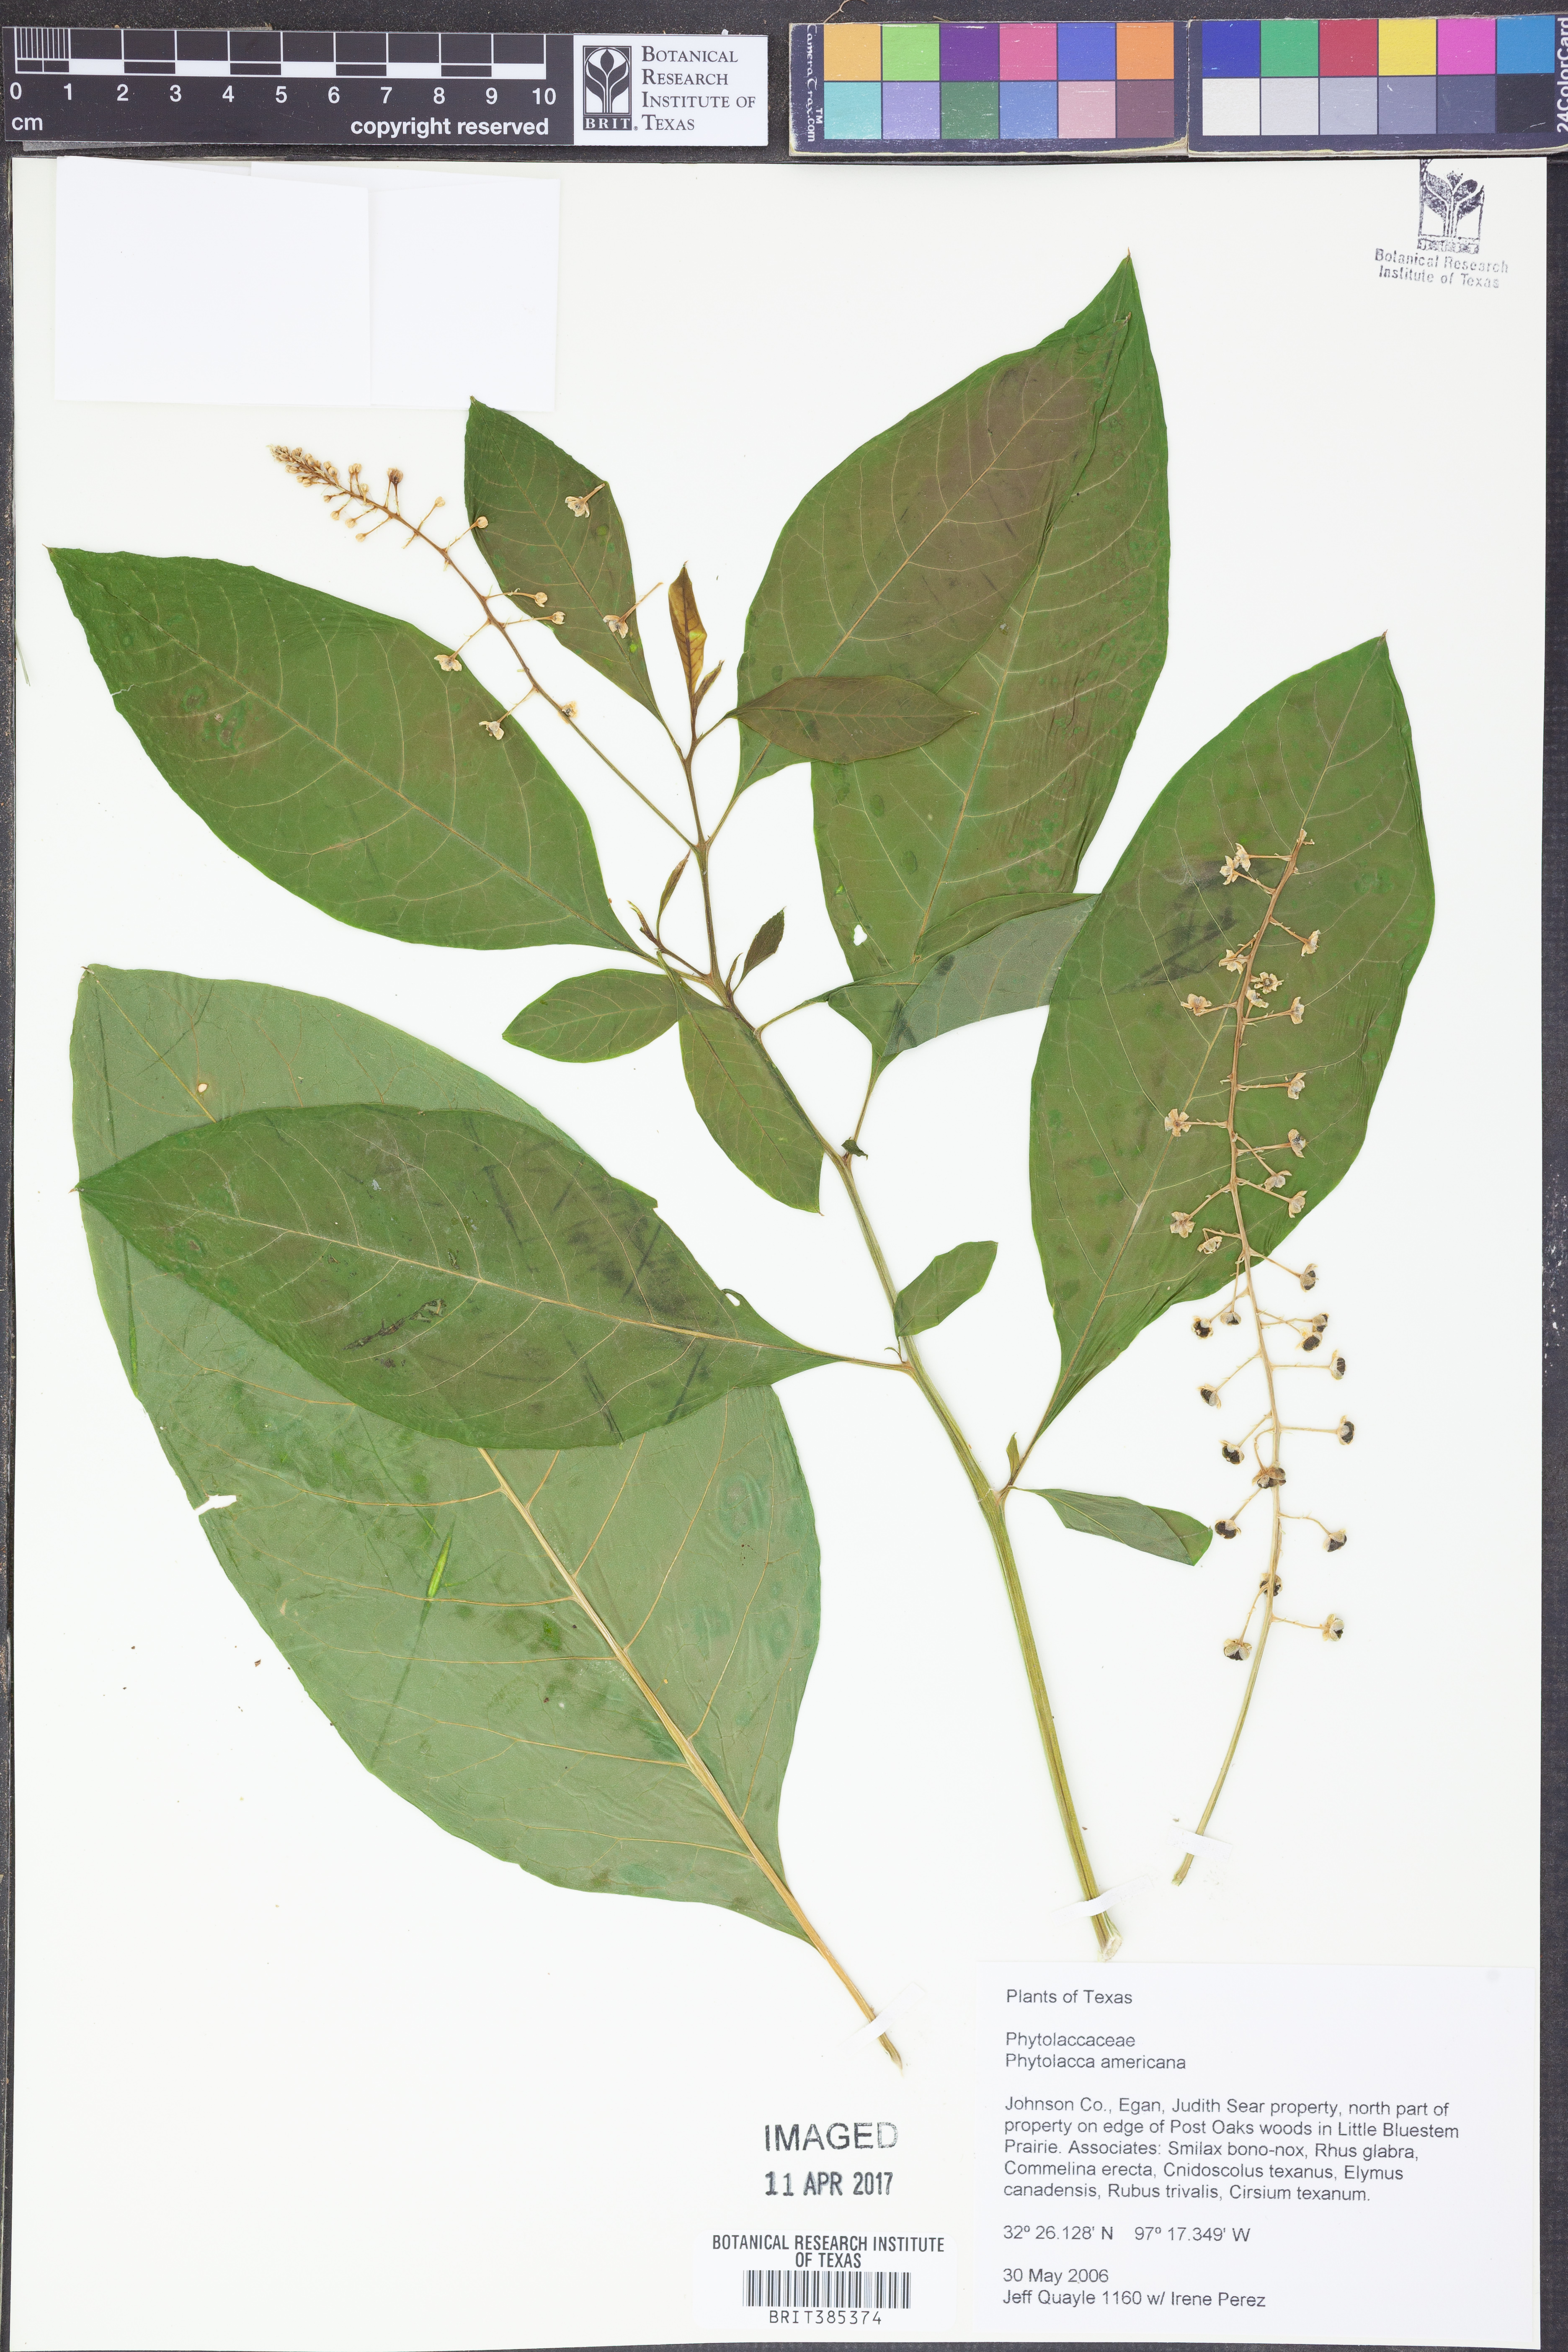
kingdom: Plantae
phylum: Tracheophyta
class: Magnoliopsida
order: Caryophyllales
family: Phytolaccaceae
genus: Phytolacca
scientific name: Phytolacca americana
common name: American pokeweed
